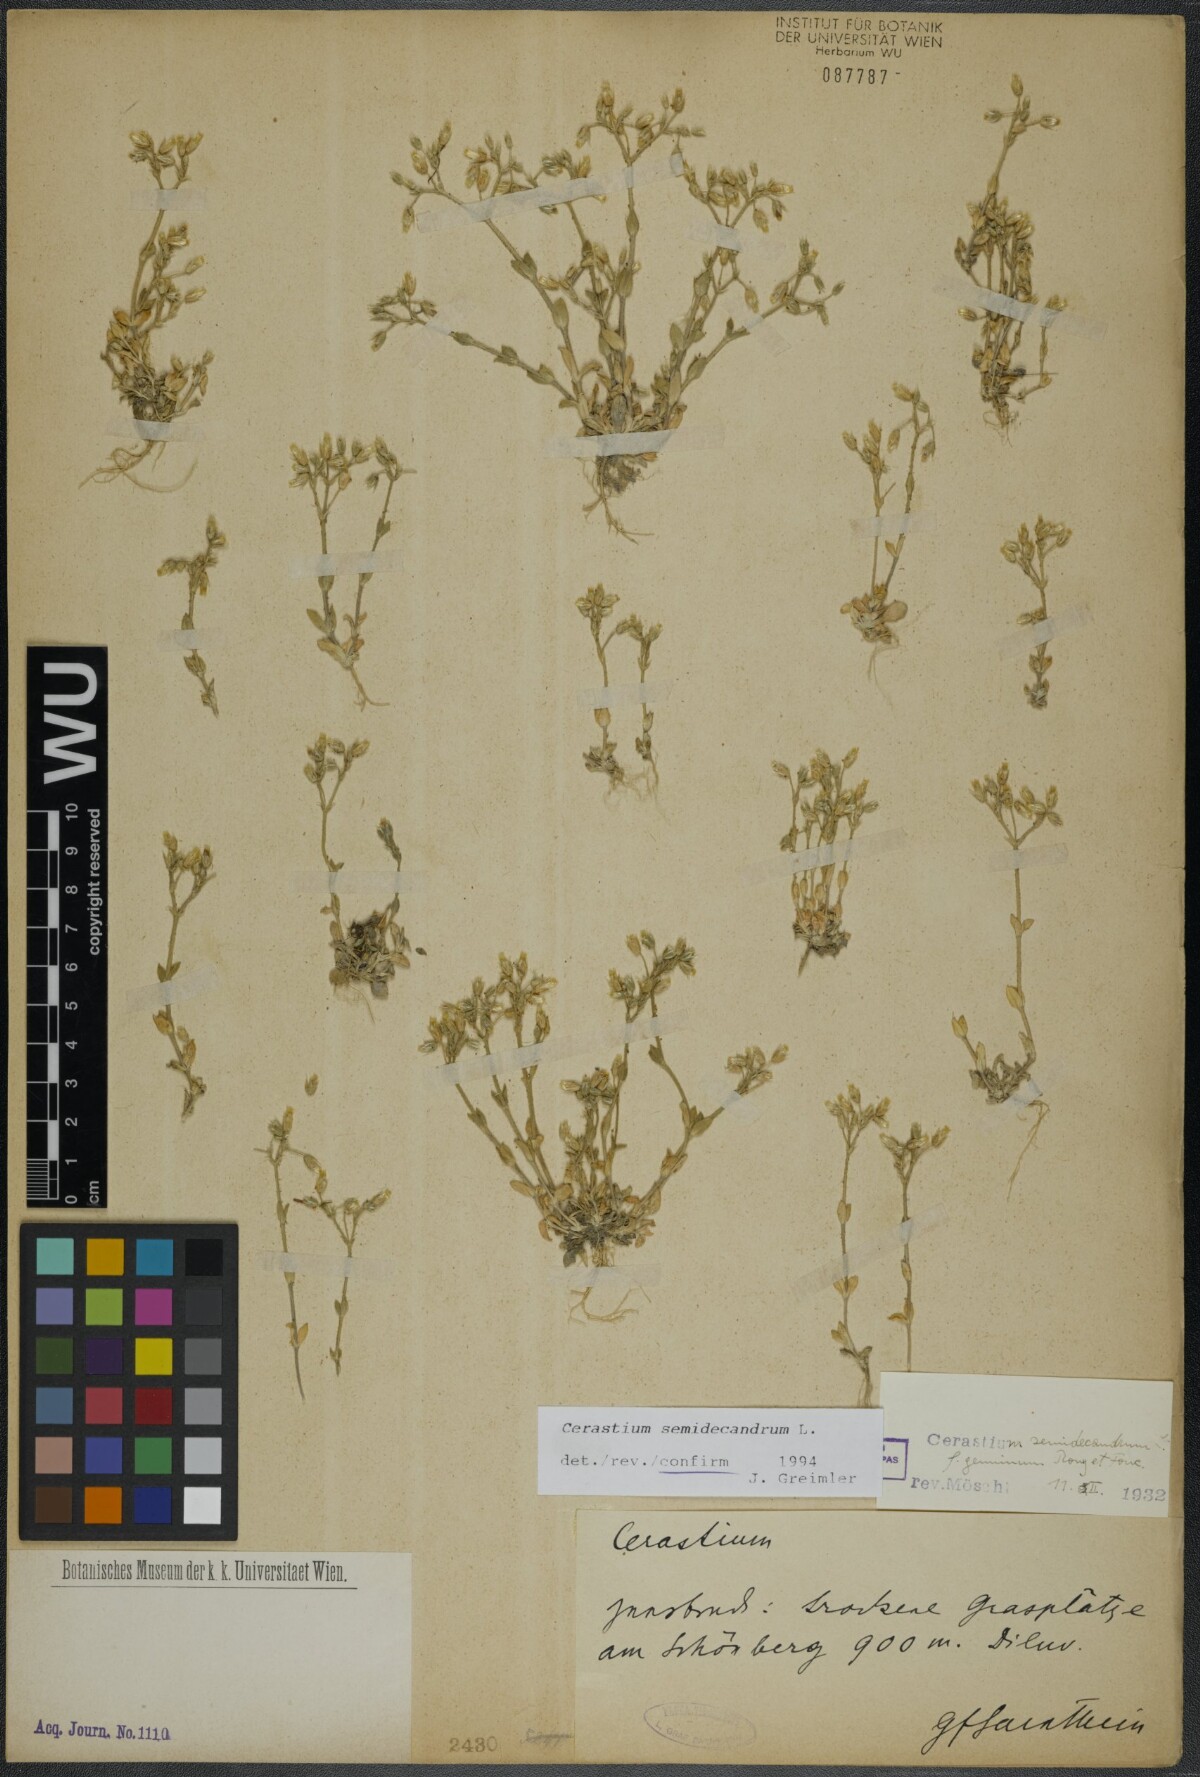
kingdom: Plantae
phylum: Tracheophyta
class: Magnoliopsida
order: Caryophyllales
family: Caryophyllaceae
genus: Cerastium
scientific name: Cerastium semidecandrum
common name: Little mouse-ear
